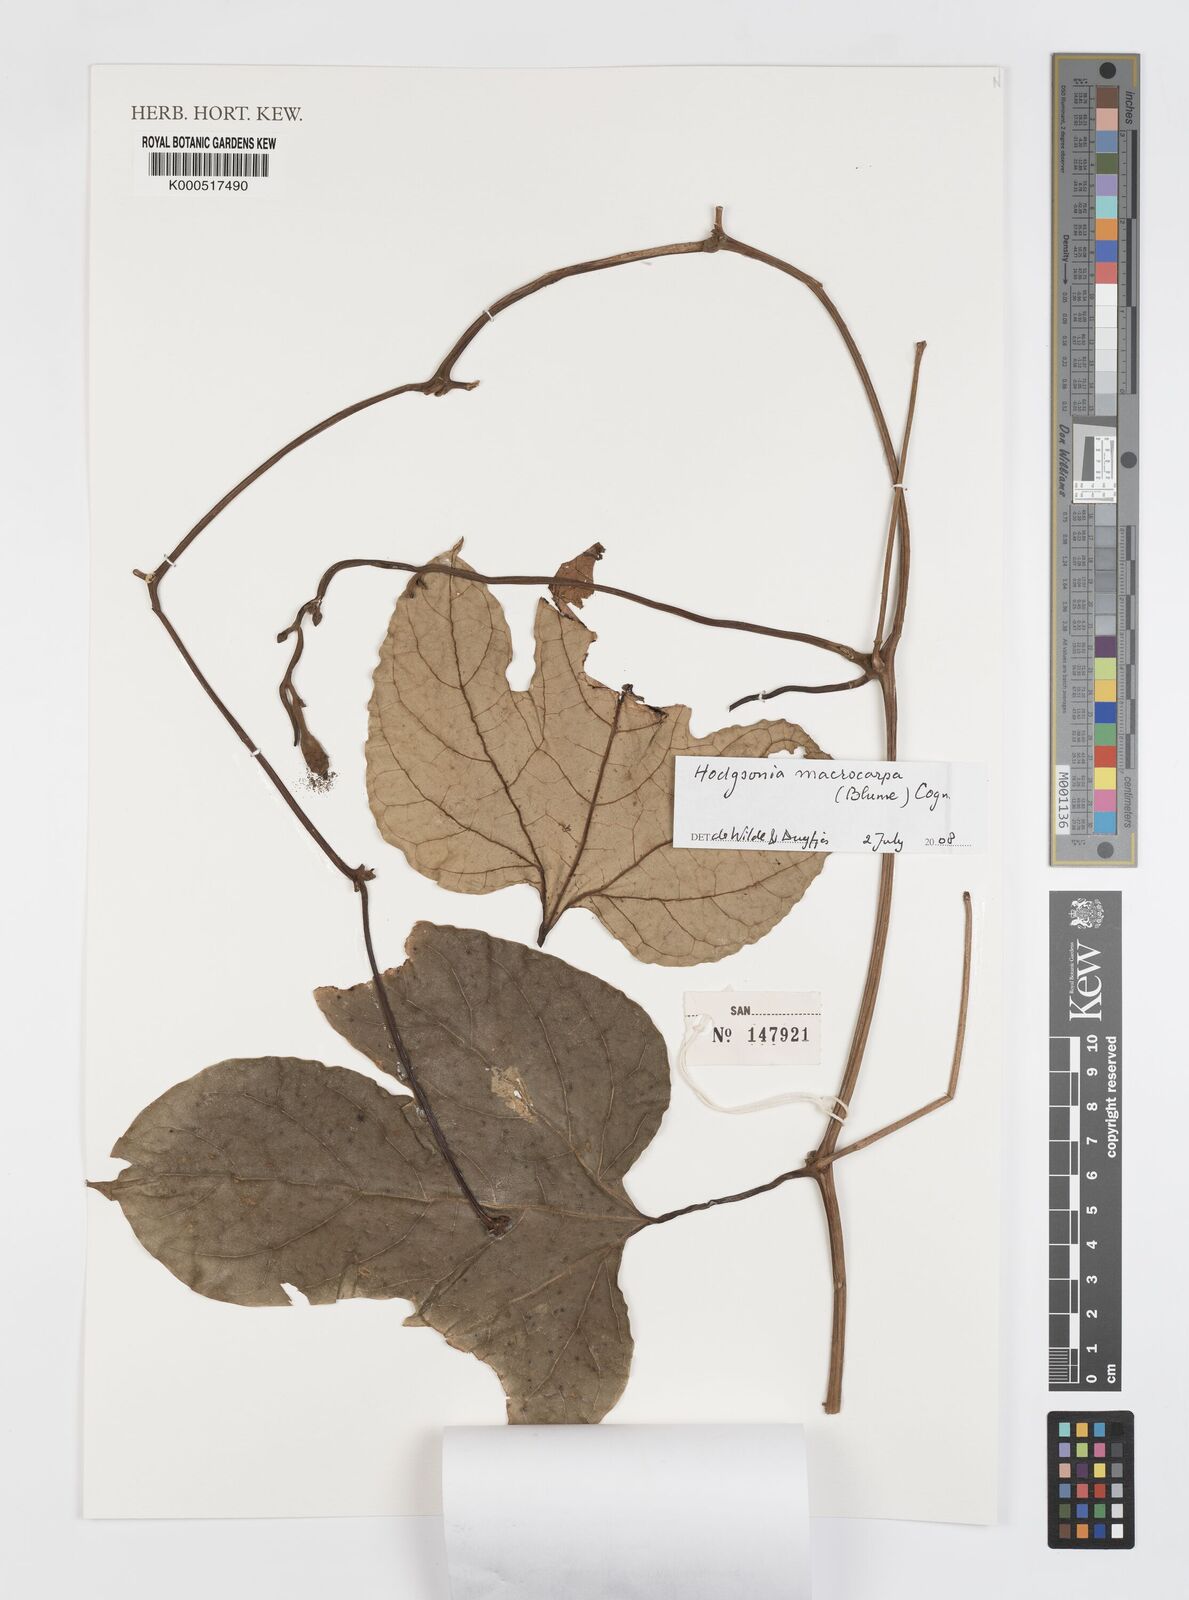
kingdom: Plantae
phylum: Tracheophyta
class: Magnoliopsida
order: Cucurbitales
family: Cucurbitaceae
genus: Hodgsonia
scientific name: Hodgsonia macrocarpa
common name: Chinese lardfruit
